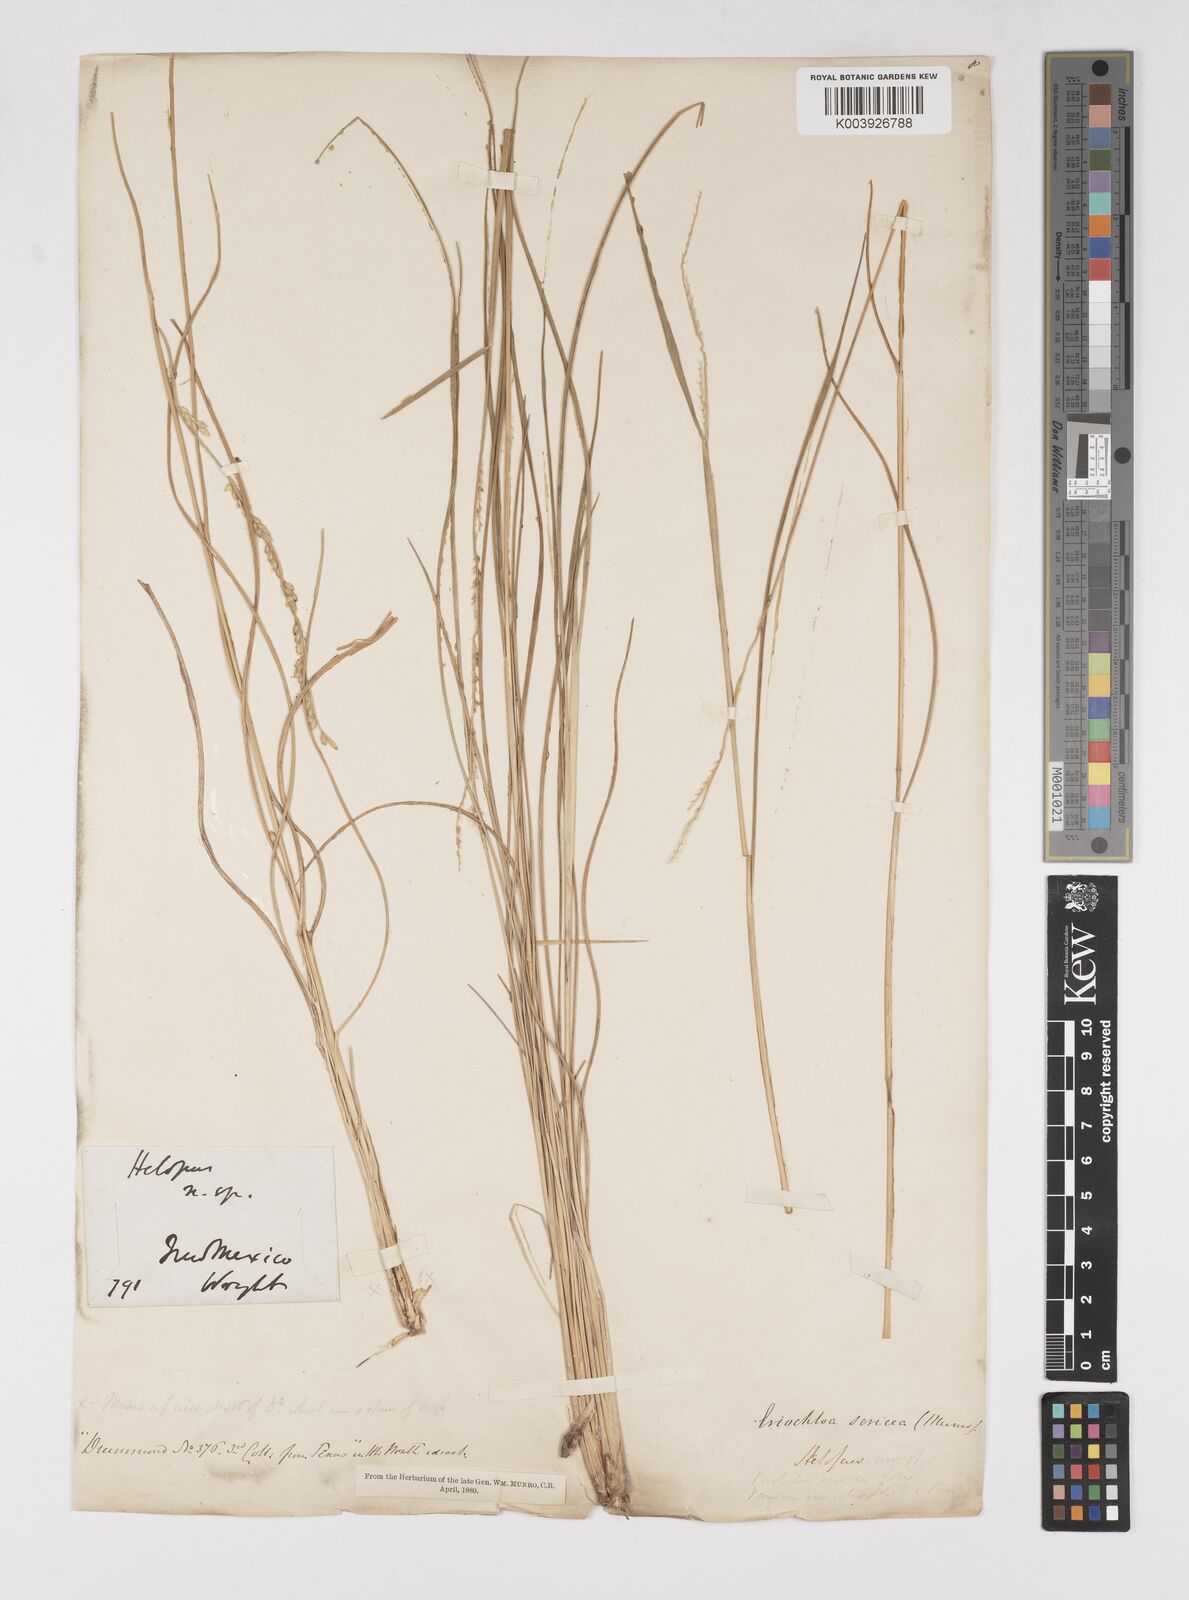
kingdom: Plantae
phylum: Tracheophyta
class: Liliopsida
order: Poales
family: Poaceae
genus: Eriochloa
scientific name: Eriochloa sericea
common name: Texas cup grass
